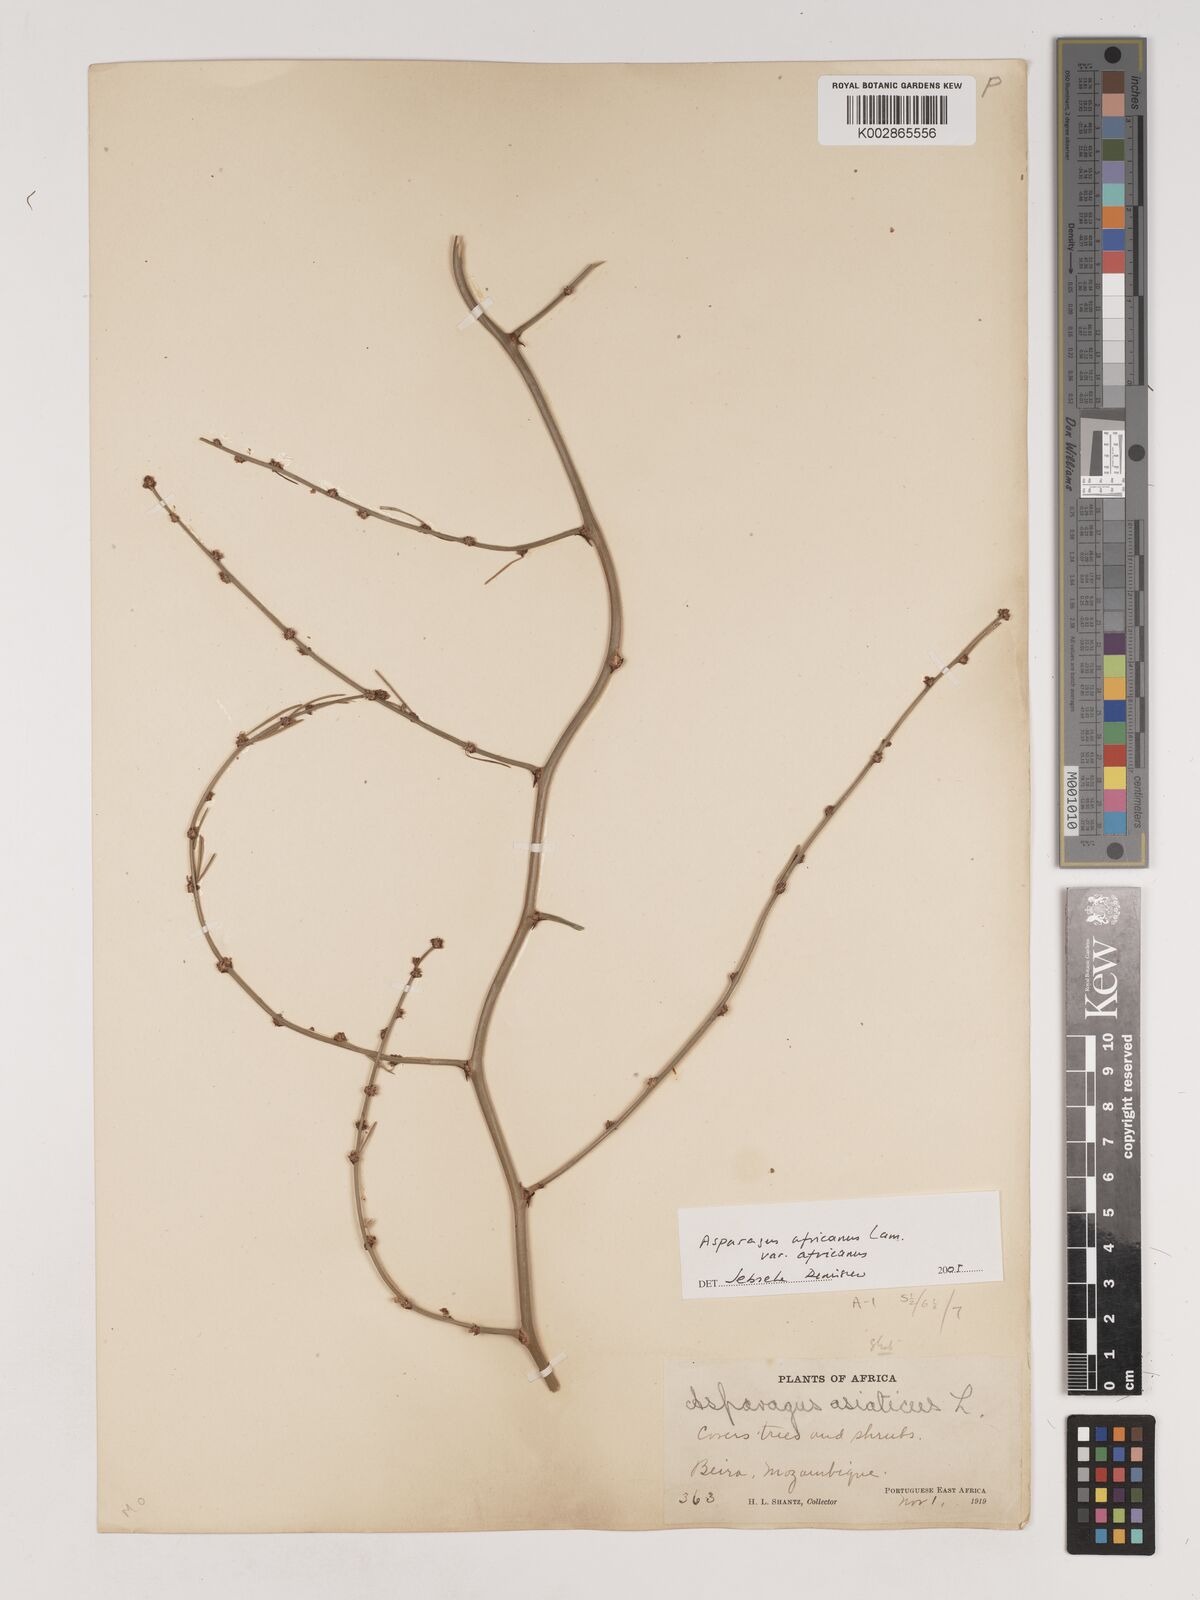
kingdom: Plantae
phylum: Tracheophyta
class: Liliopsida
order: Asparagales
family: Asparagaceae
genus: Asparagus
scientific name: Asparagus africanus
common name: Asparagus-fern
